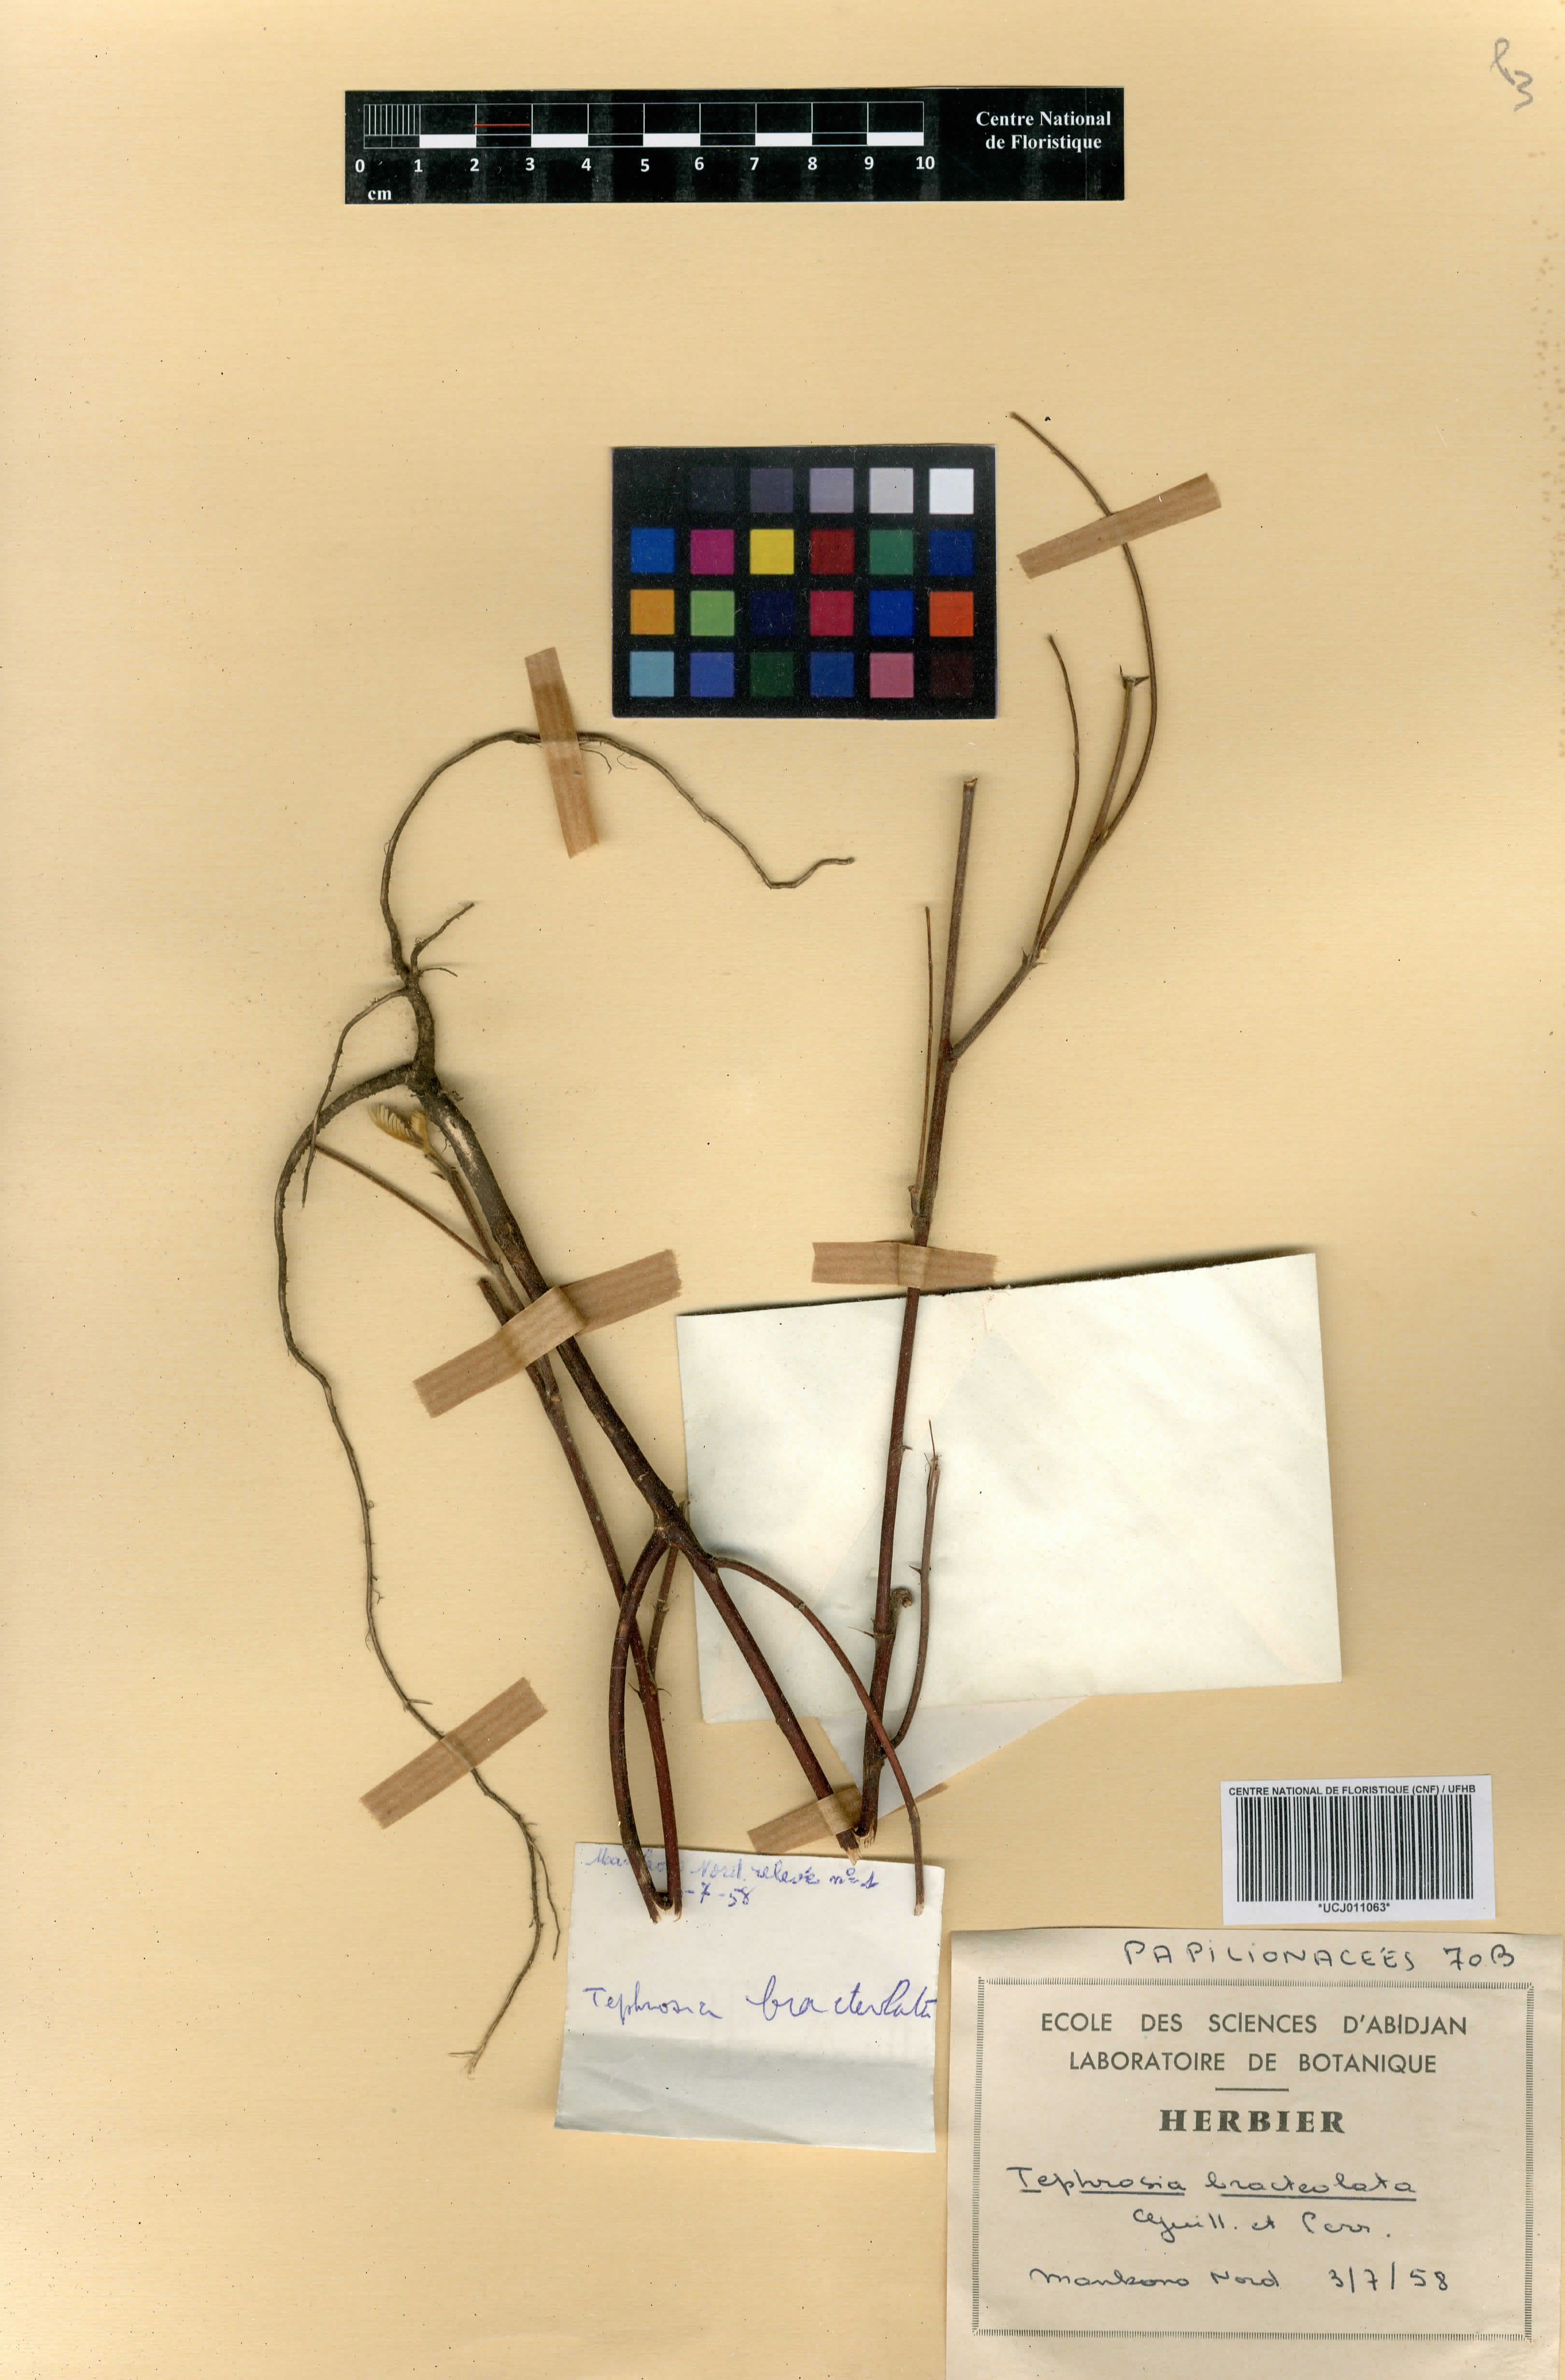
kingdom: Plantae
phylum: Tracheophyta
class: Magnoliopsida
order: Fabales
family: Fabaceae
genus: Tephrosia
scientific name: Tephrosia bracteolata
